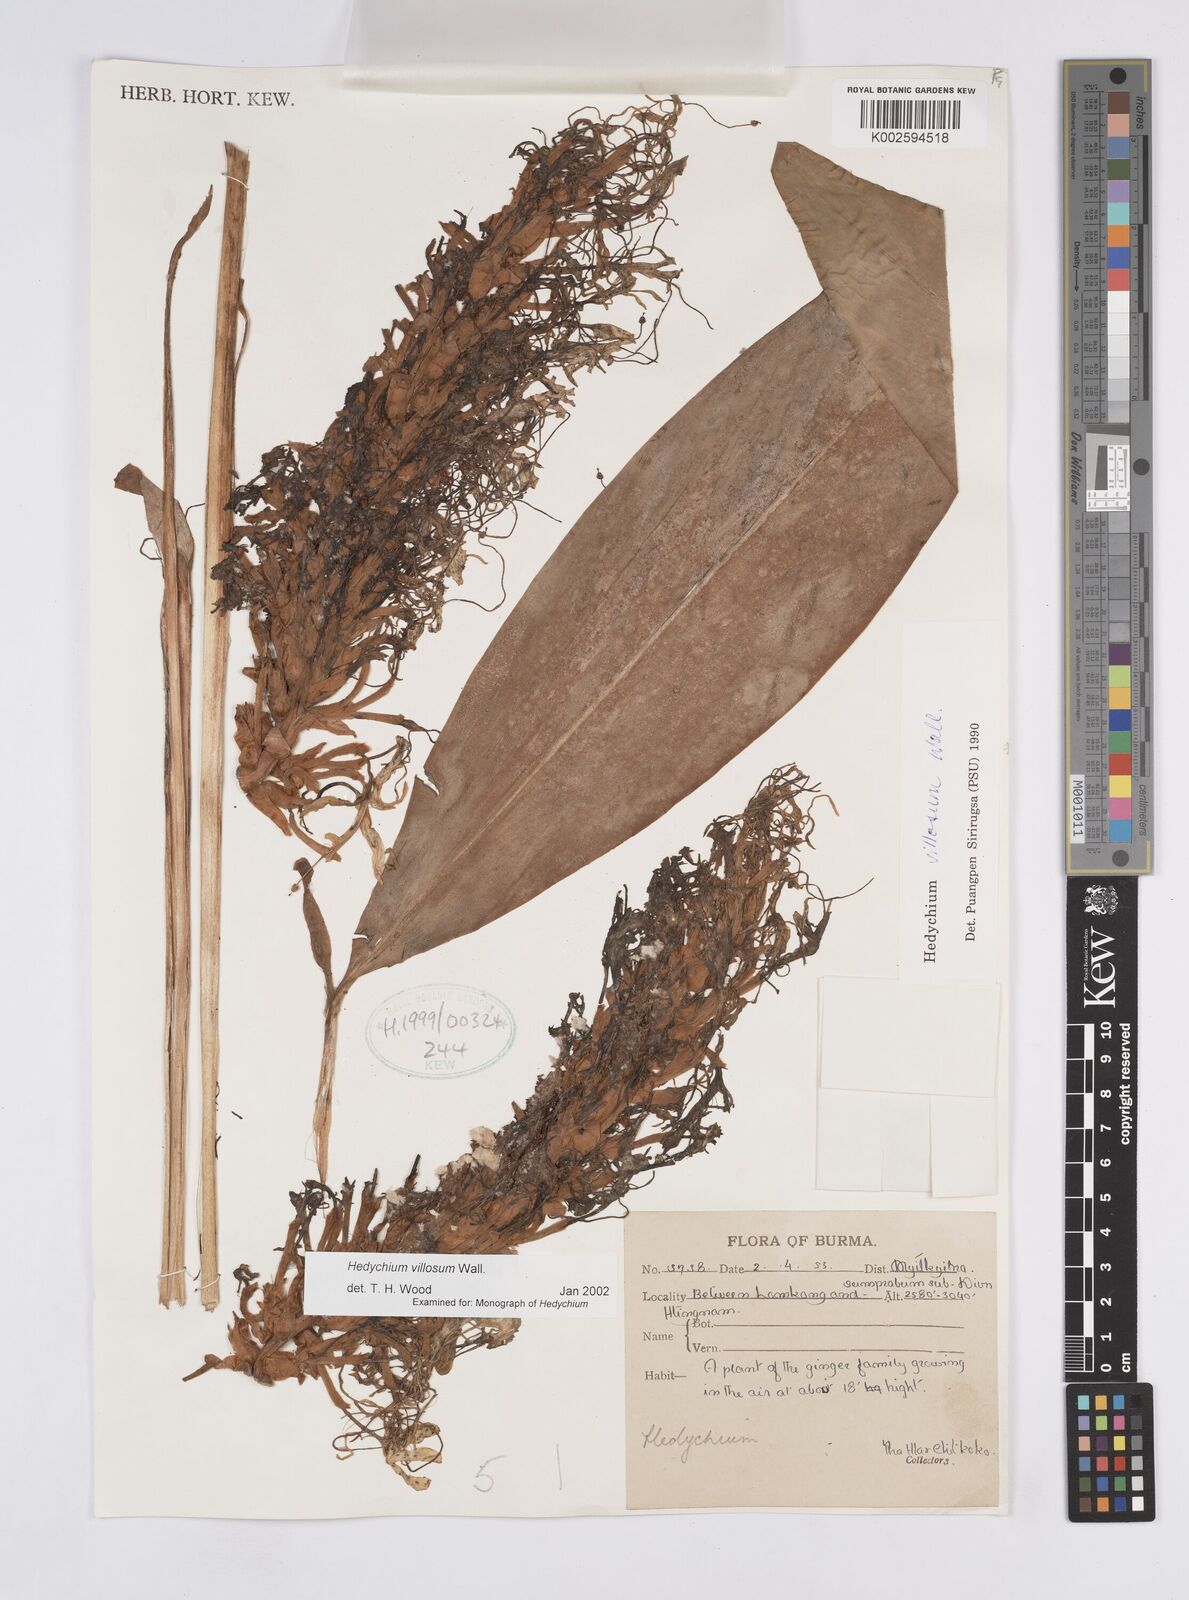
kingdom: Plantae
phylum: Tracheophyta
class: Liliopsida
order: Zingiberales
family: Zingiberaceae
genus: Hedychium
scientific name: Hedychium villosum
